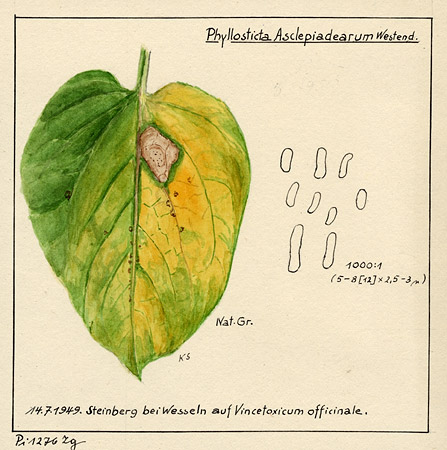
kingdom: Plantae
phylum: Tracheophyta
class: Magnoliopsida
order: Gentianales
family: Apocynaceae
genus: Vincetoxicum
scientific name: Vincetoxicum hirundinaria
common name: White swallowwort
